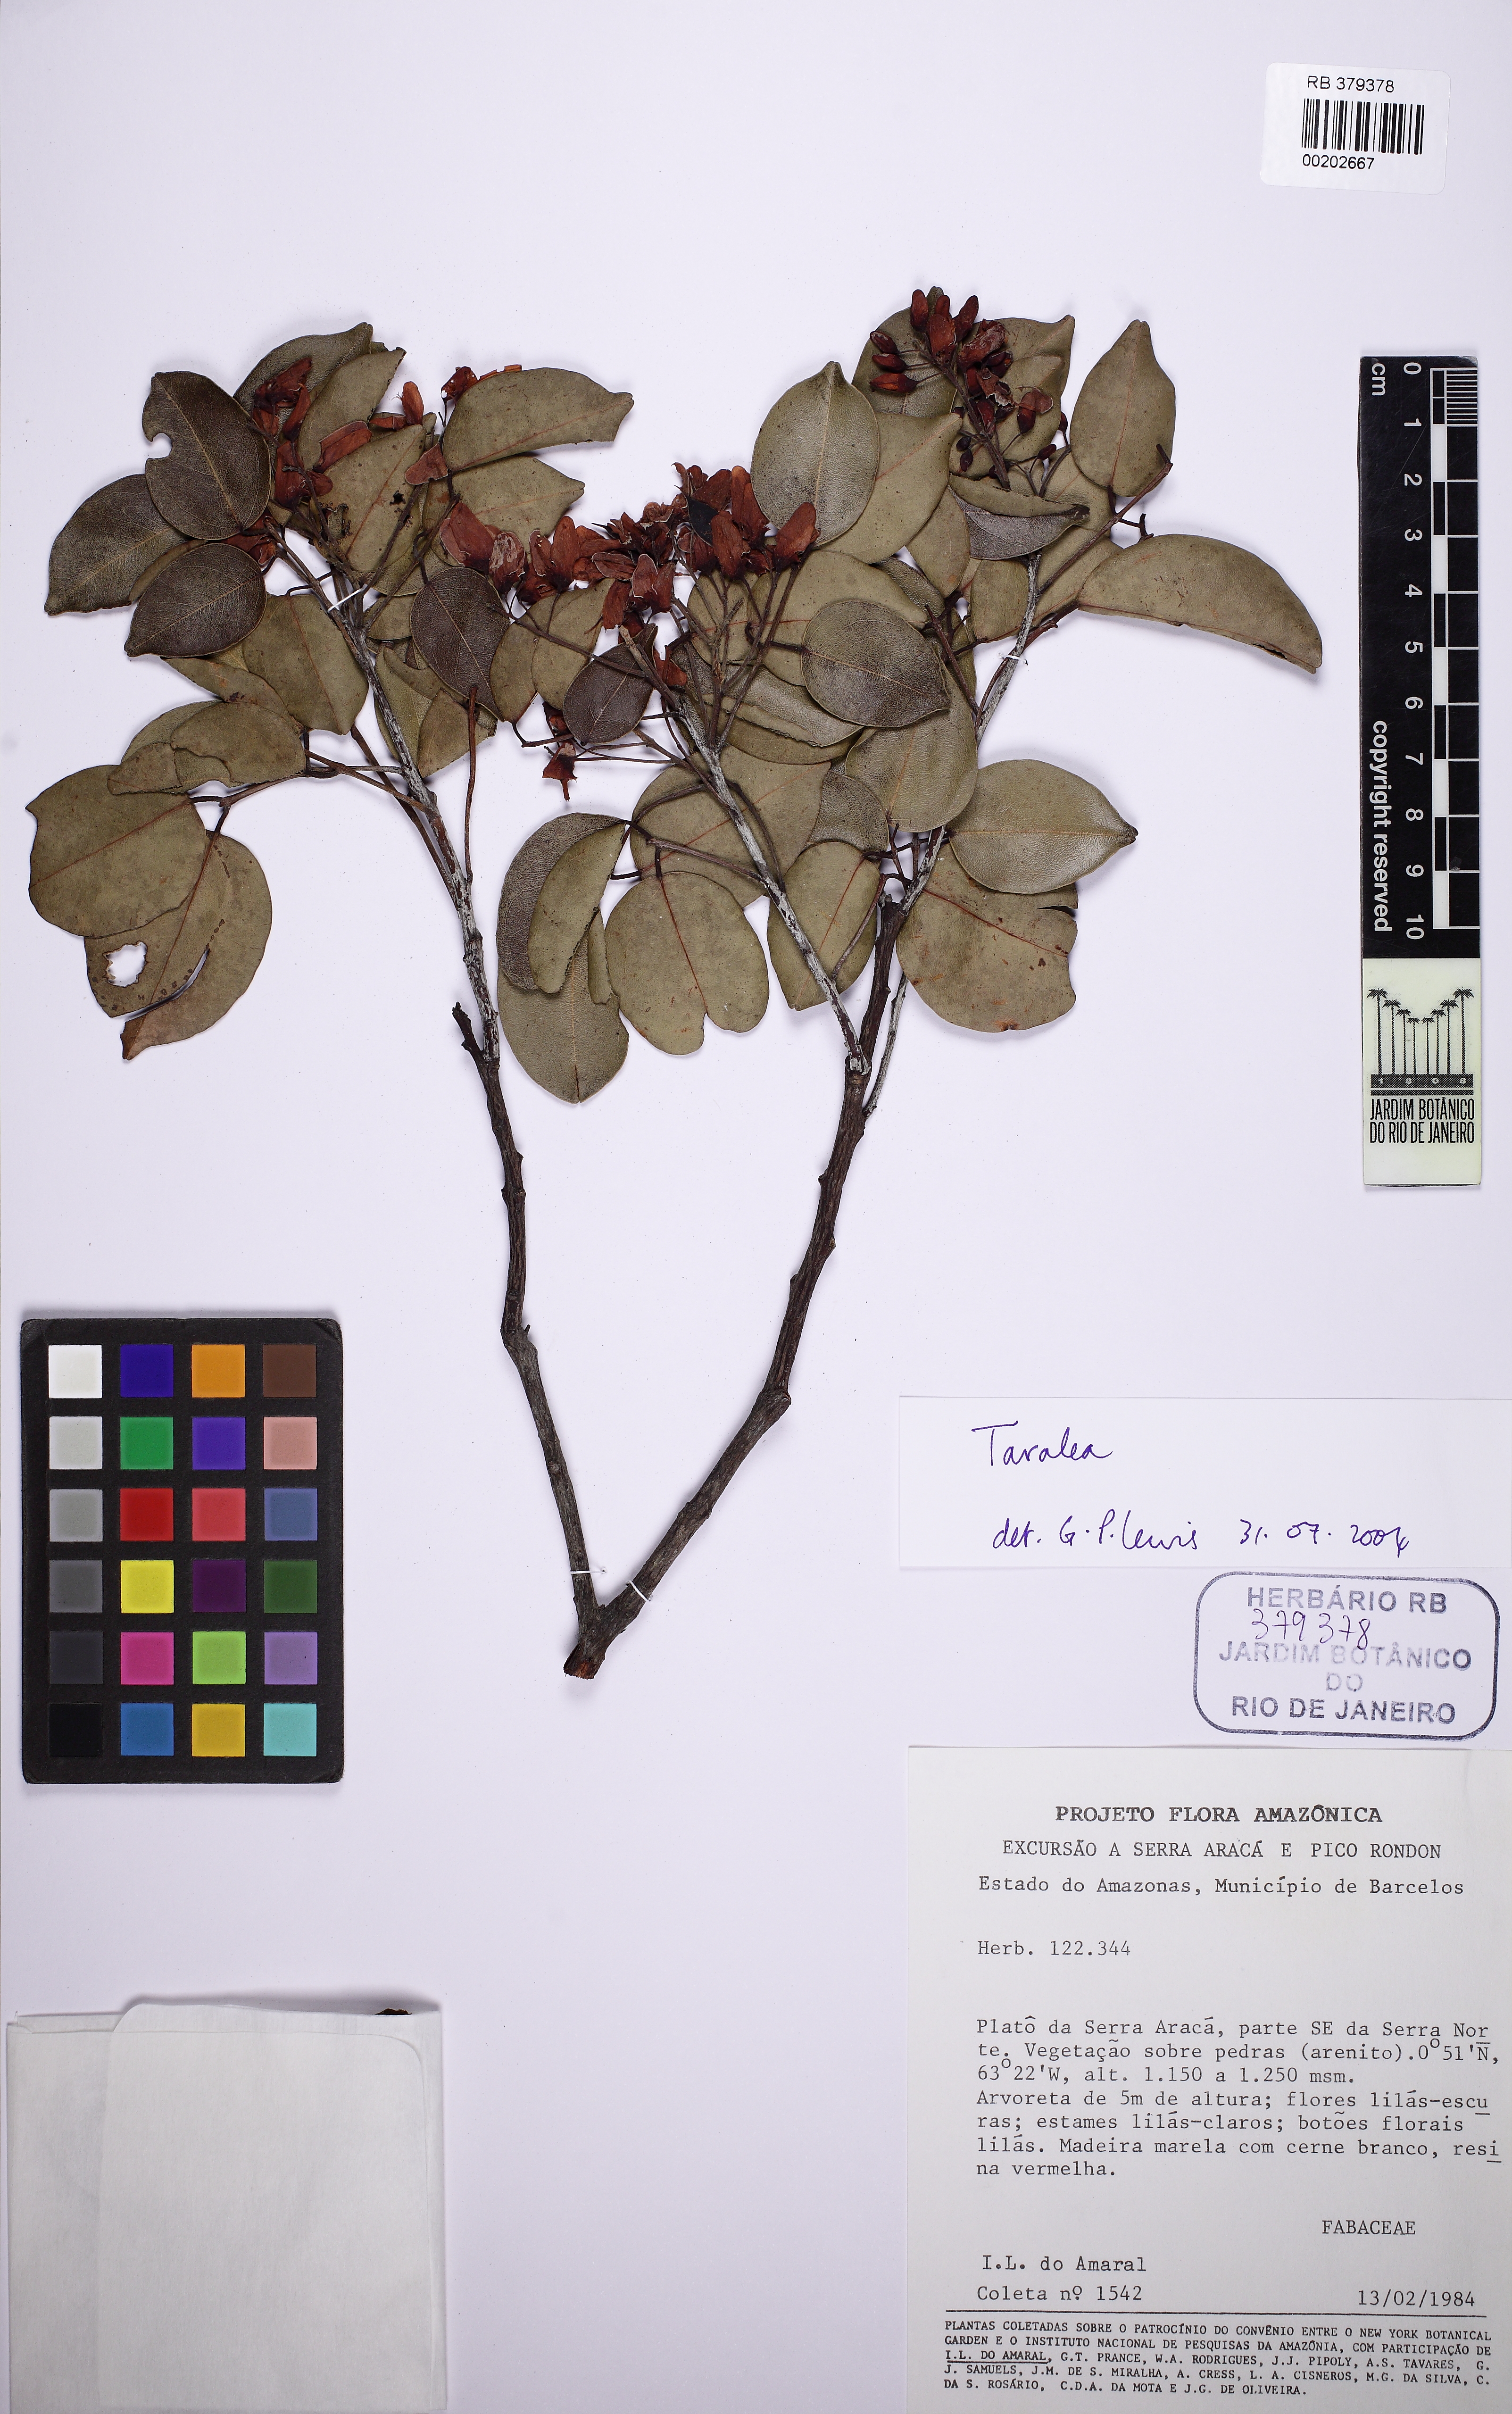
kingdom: Plantae
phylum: Tracheophyta
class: Magnoliopsida
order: Fabales
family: Fabaceae
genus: Taralea
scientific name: Taralea
